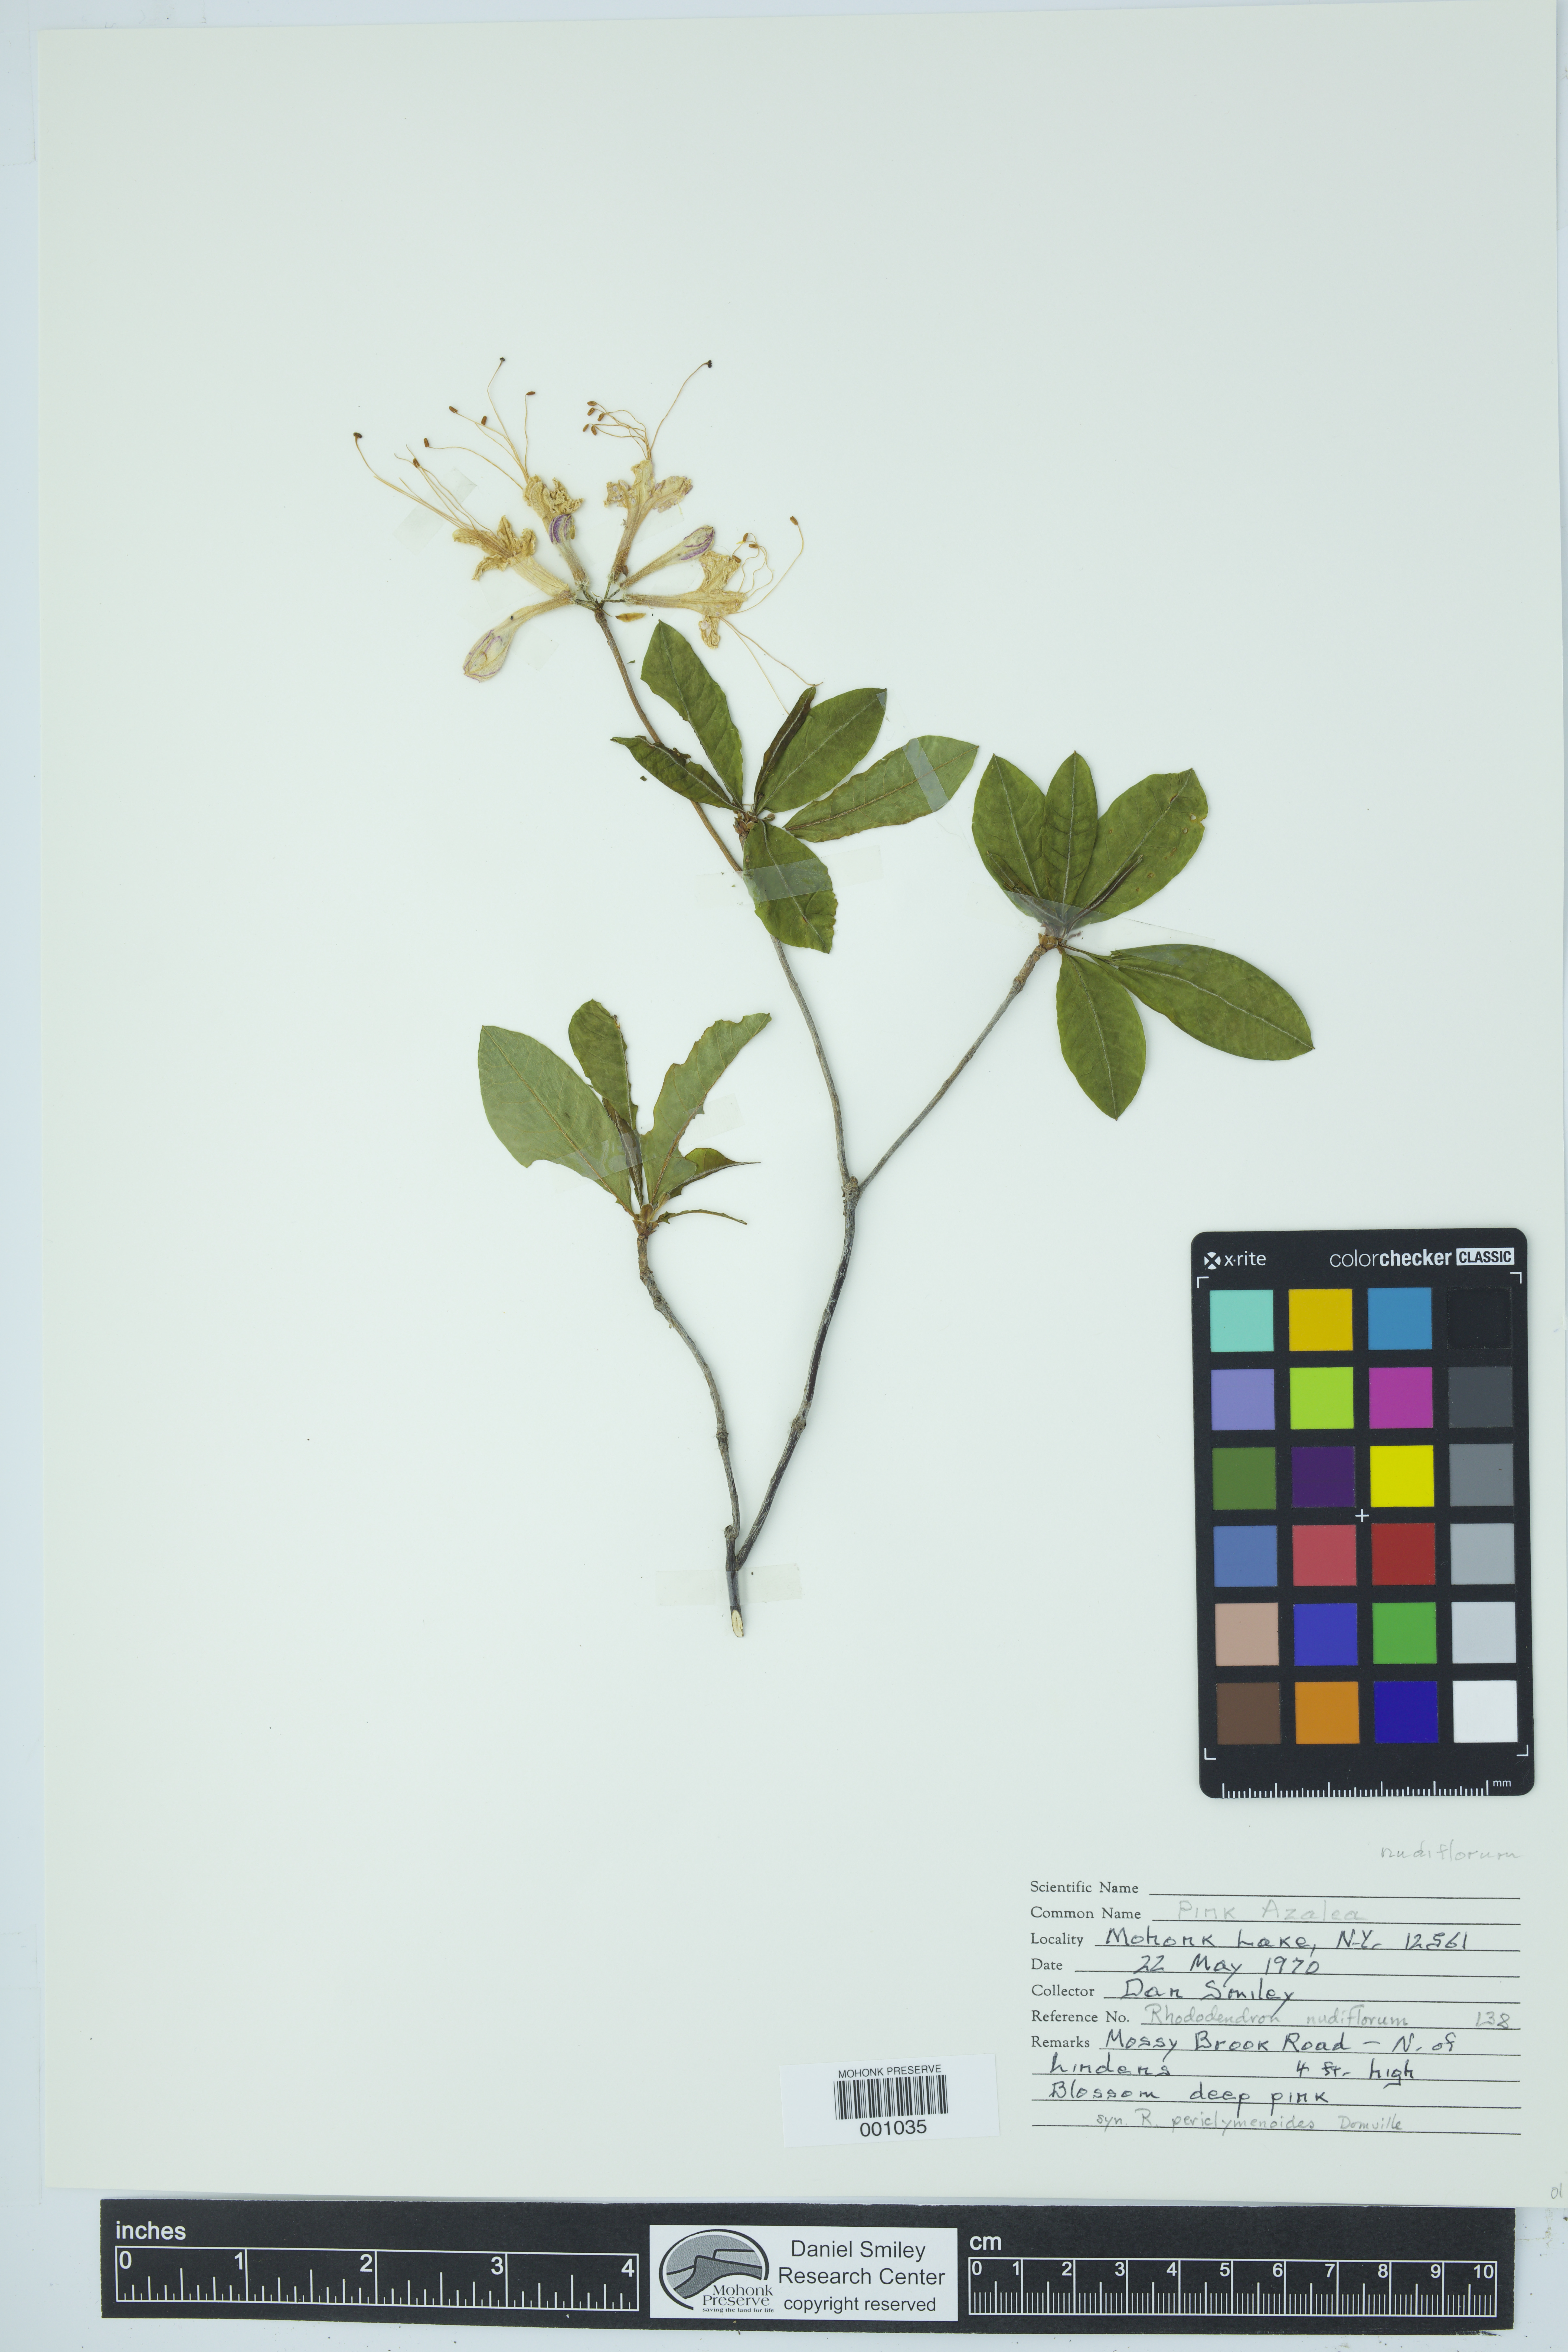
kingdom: Plantae
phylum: Tracheophyta
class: Magnoliopsida
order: Ericales
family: Ericaceae
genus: Rhododendron
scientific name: Rhododendron periclymenoides
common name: Election-pink
